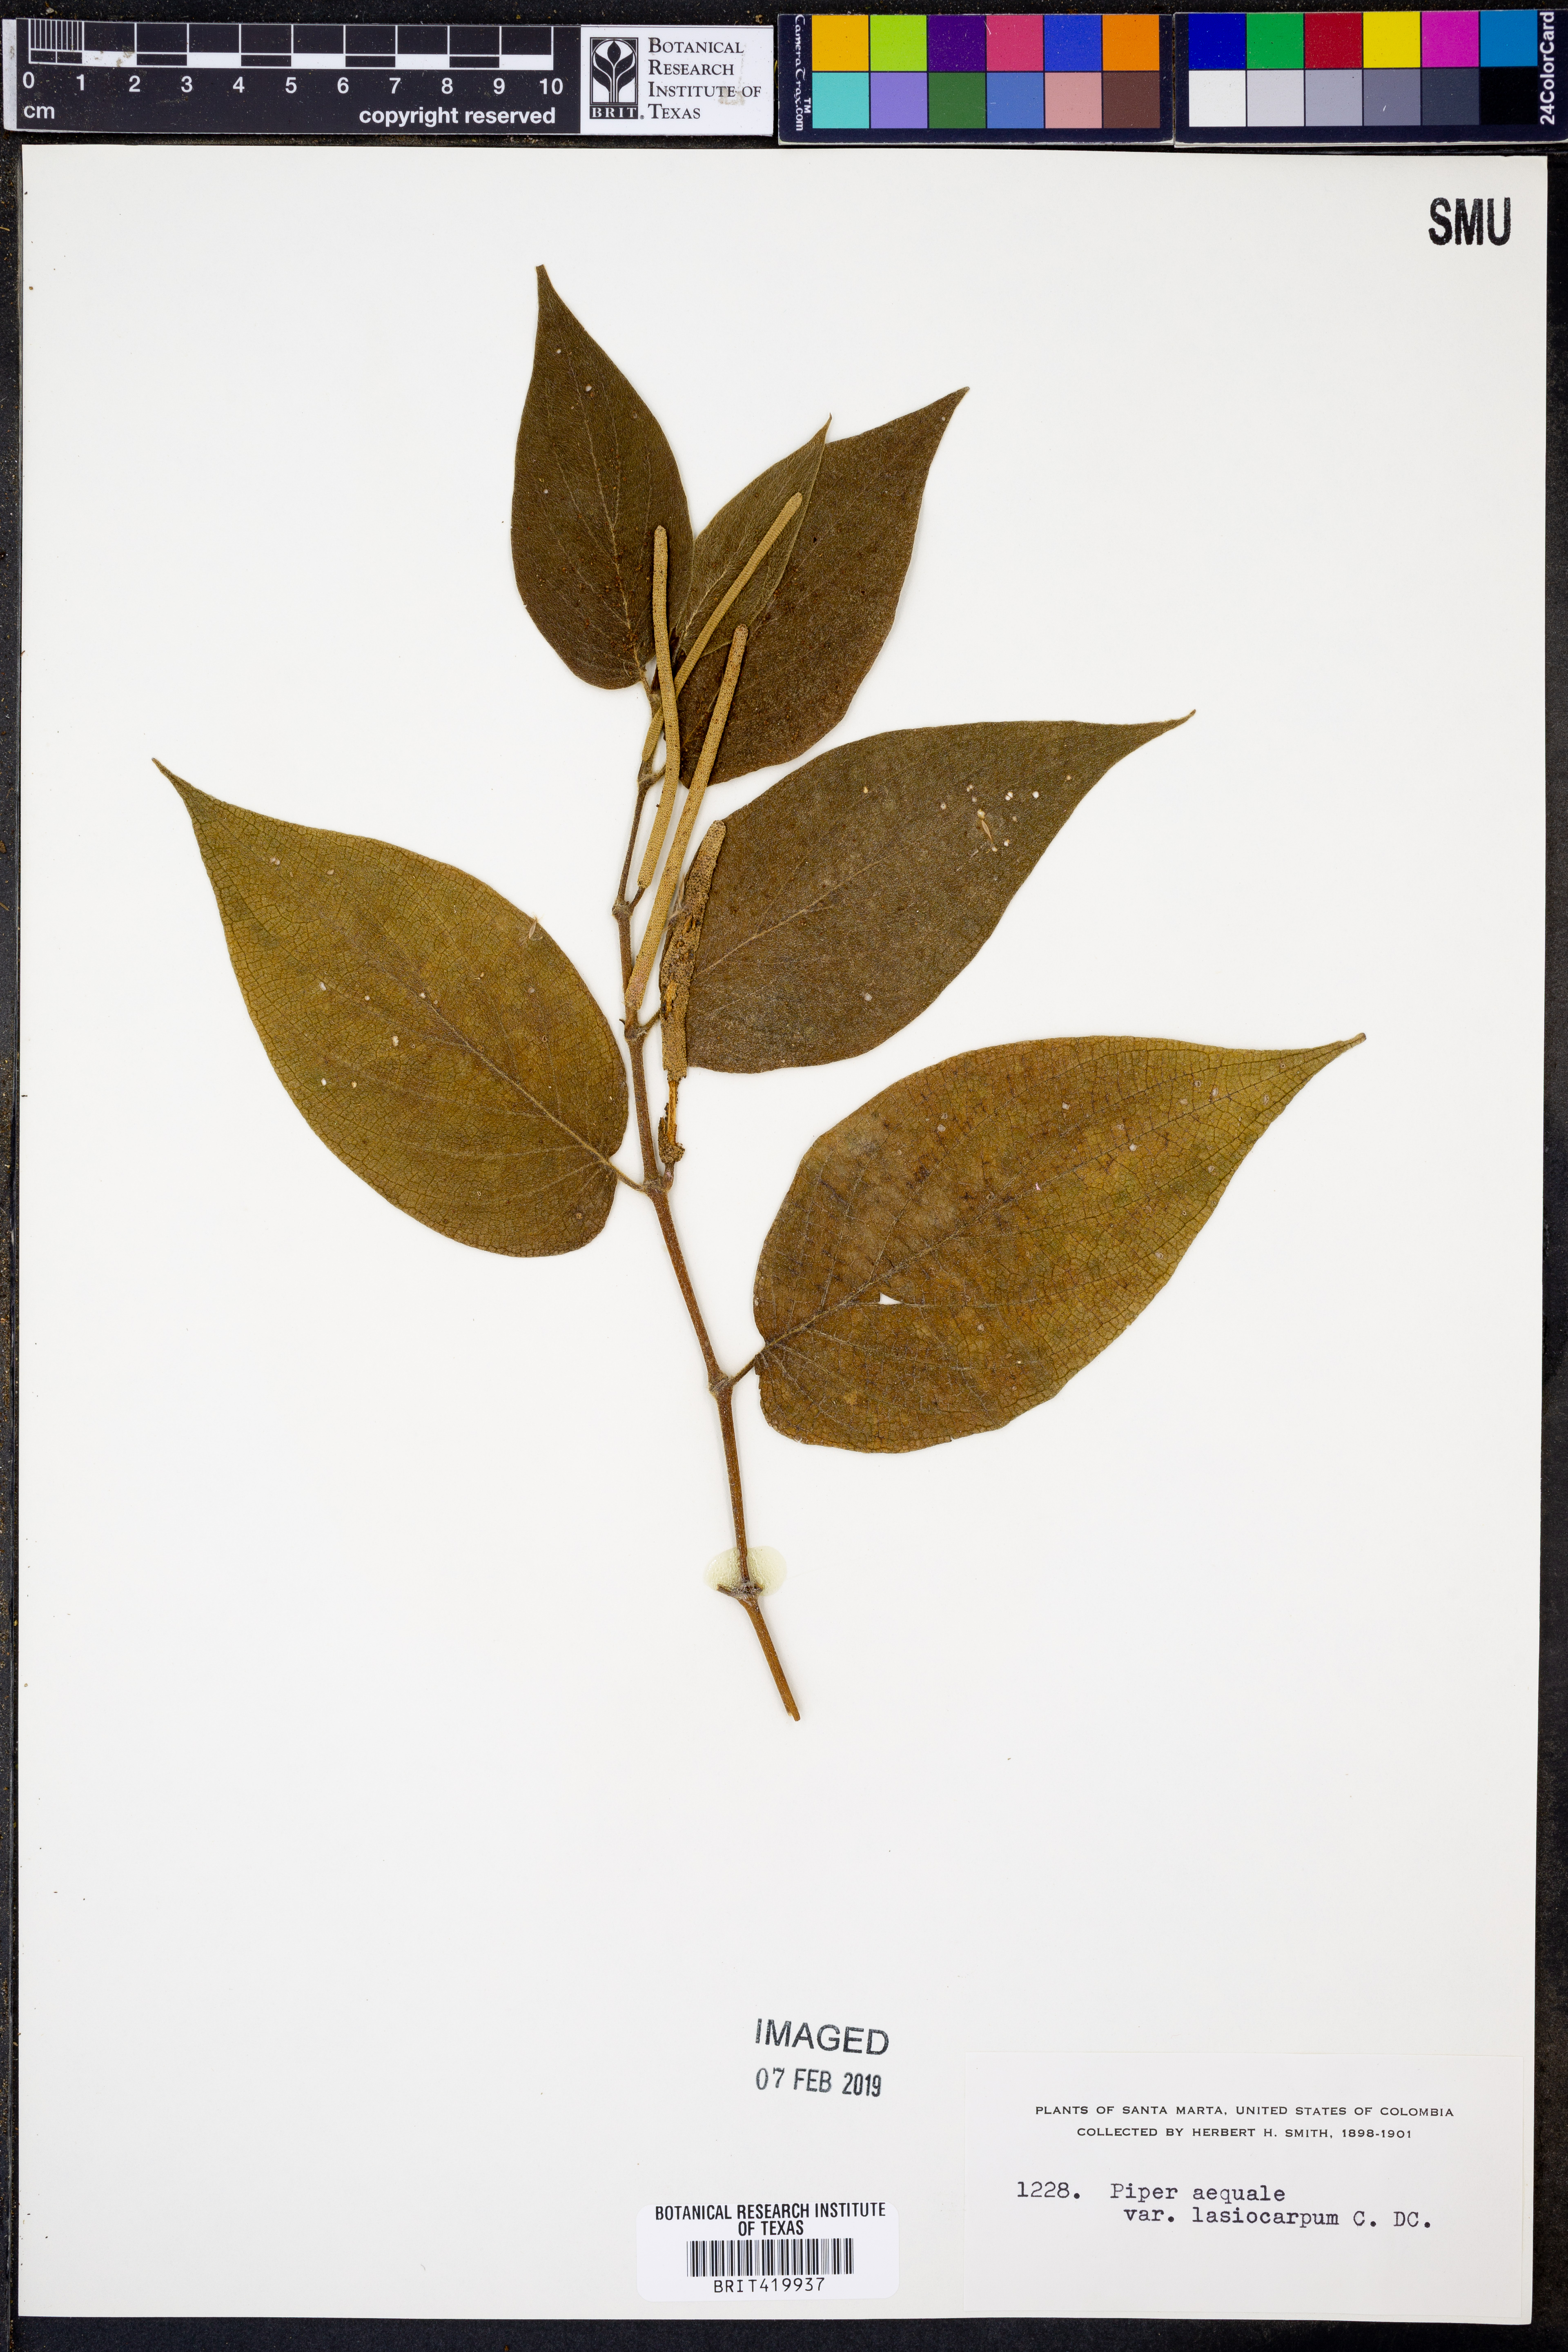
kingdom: Plantae
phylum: Tracheophyta
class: Magnoliopsida
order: Piperales
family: Piperaceae
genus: Piper
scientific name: Piper aequale
